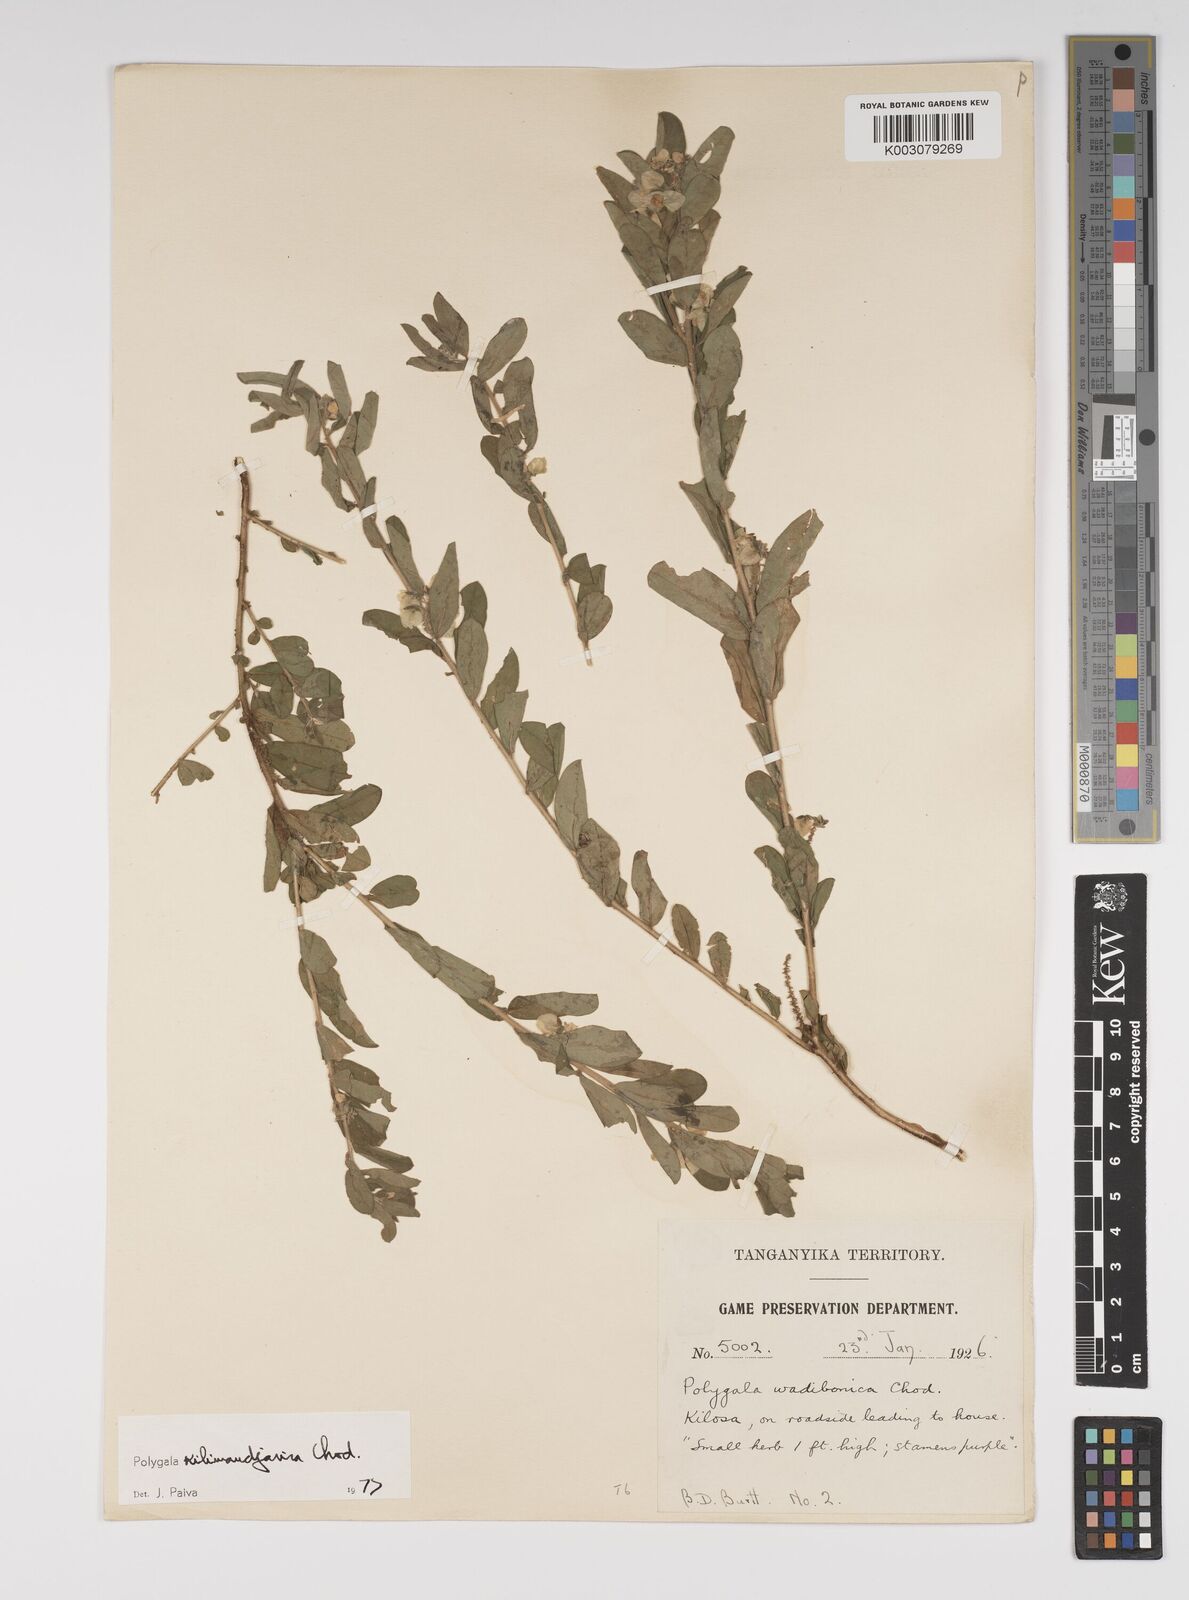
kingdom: Plantae
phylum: Tracheophyta
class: Magnoliopsida
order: Fabales
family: Polygalaceae
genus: Polygala
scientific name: Polygala kilimandjarica
